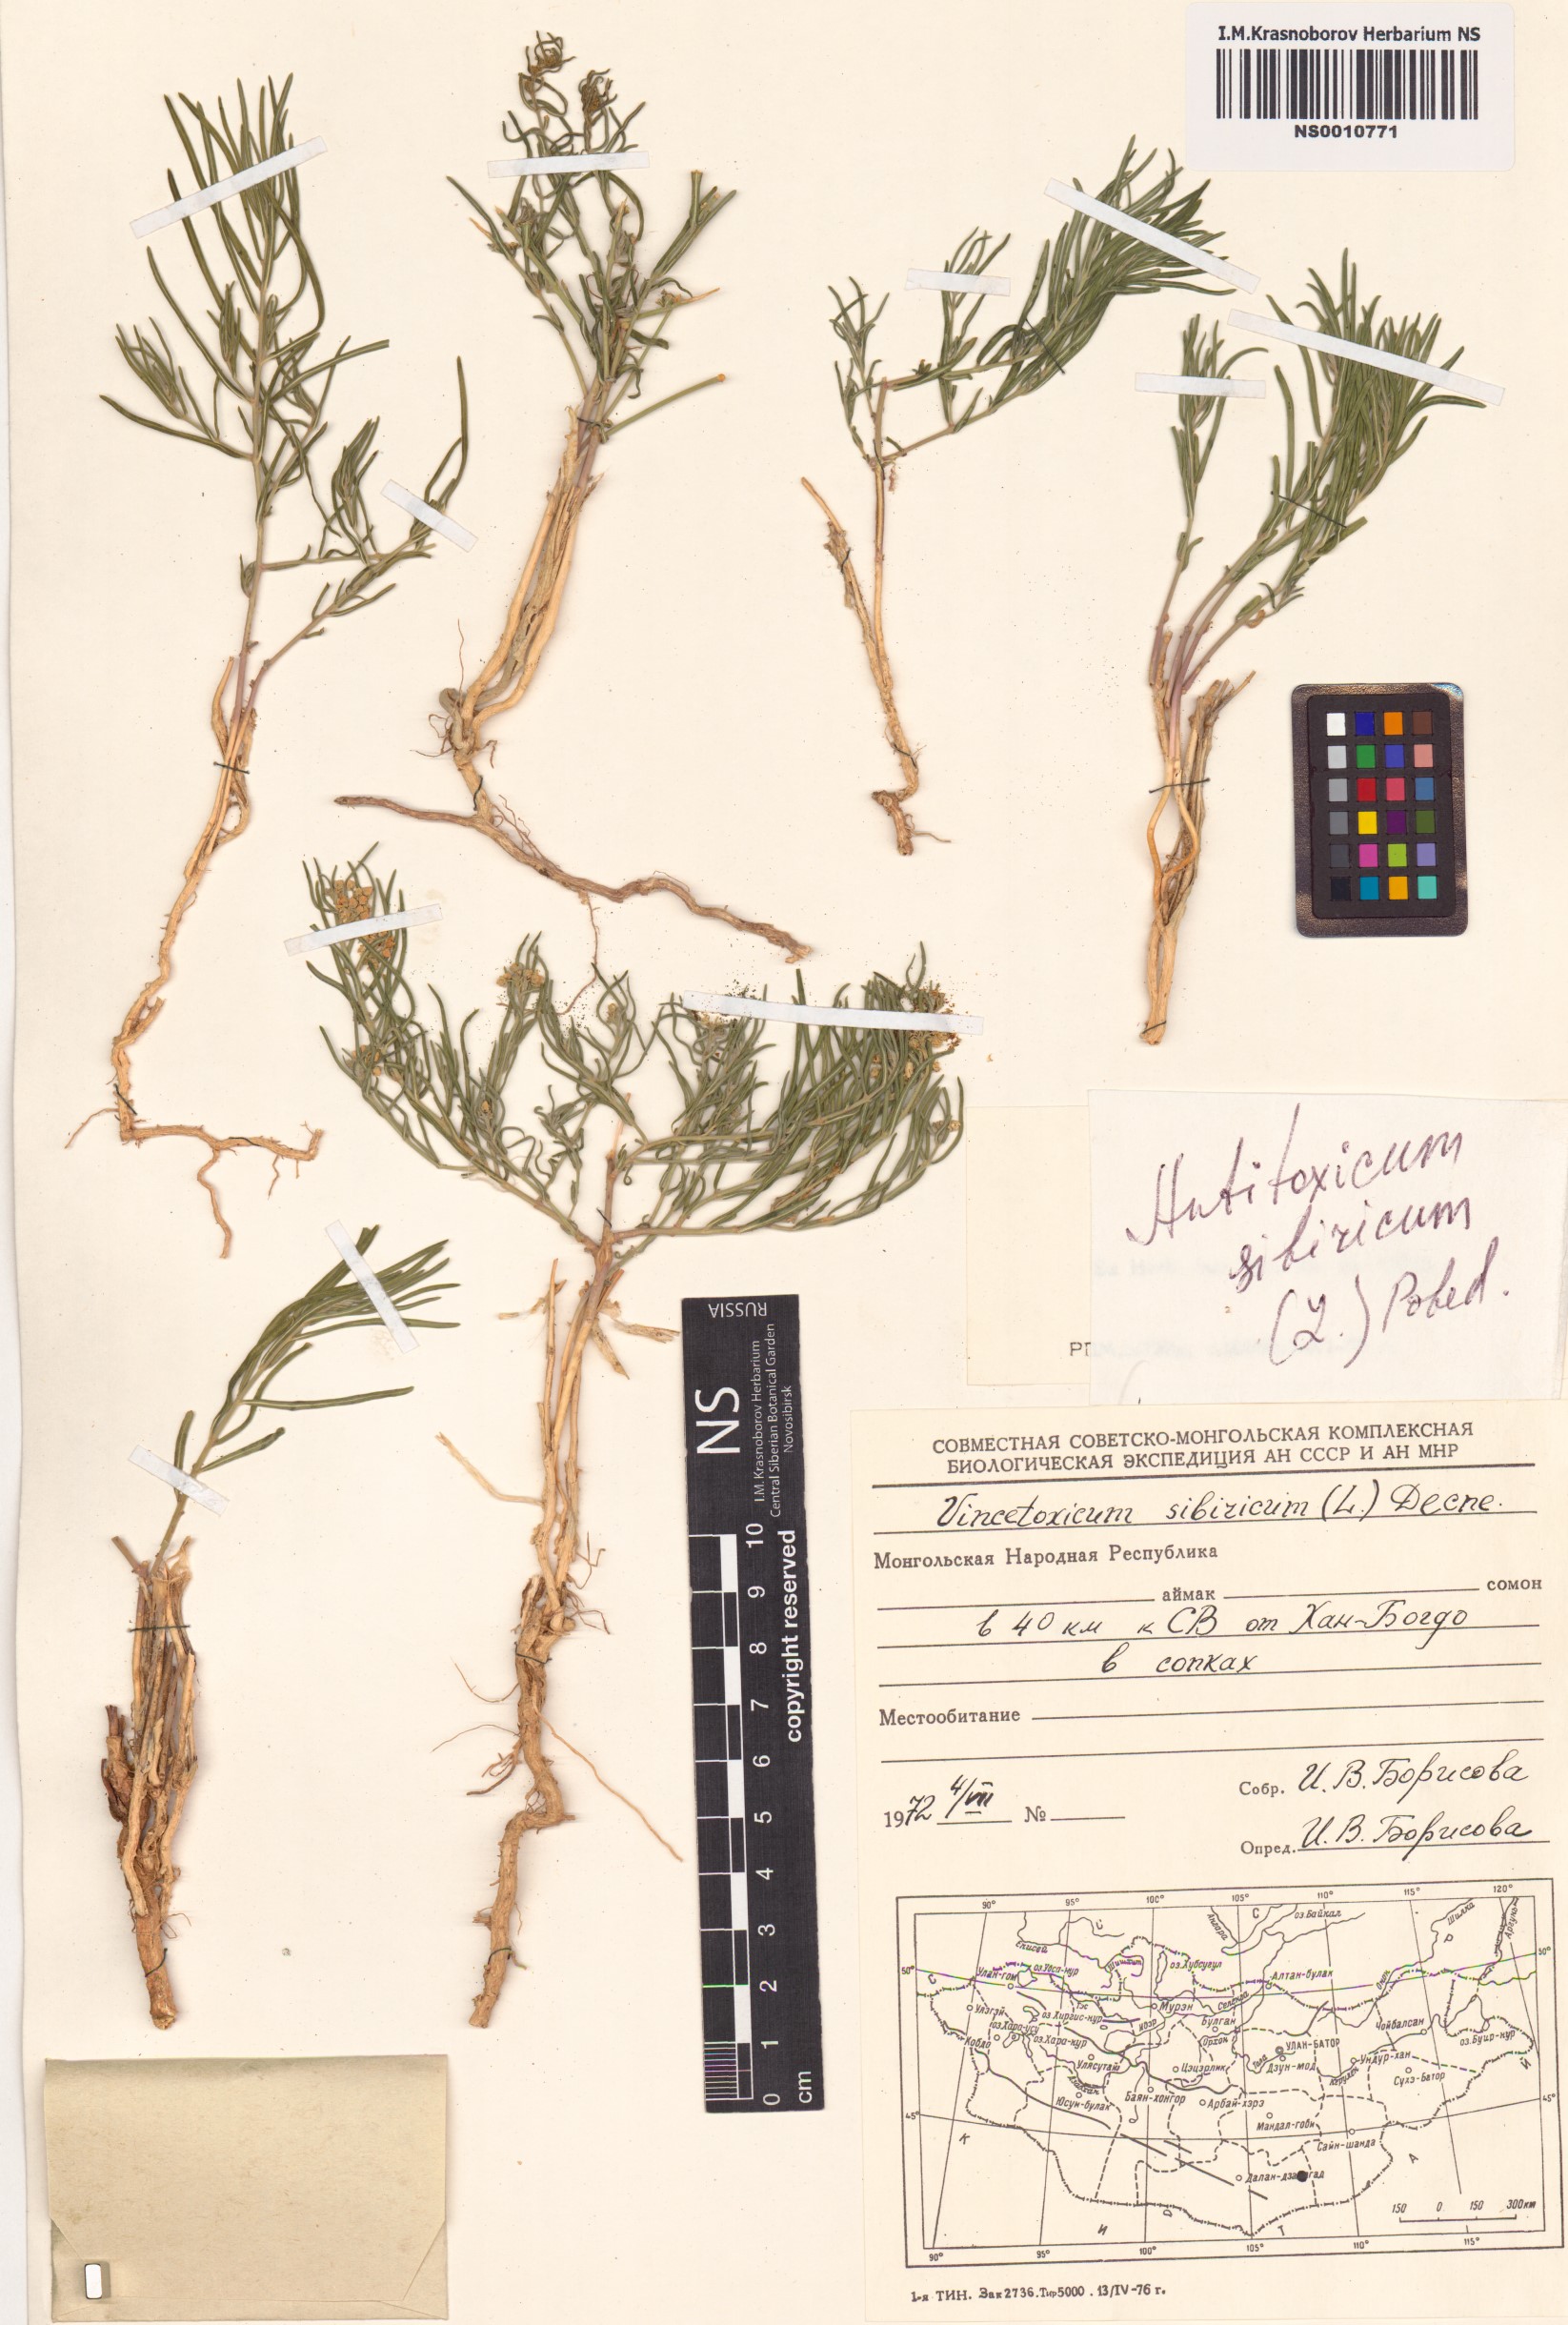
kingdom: Plantae
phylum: Tracheophyta
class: Magnoliopsida
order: Gentianales
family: Apocynaceae
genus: Cynanchum
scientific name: Cynanchum thesioides
